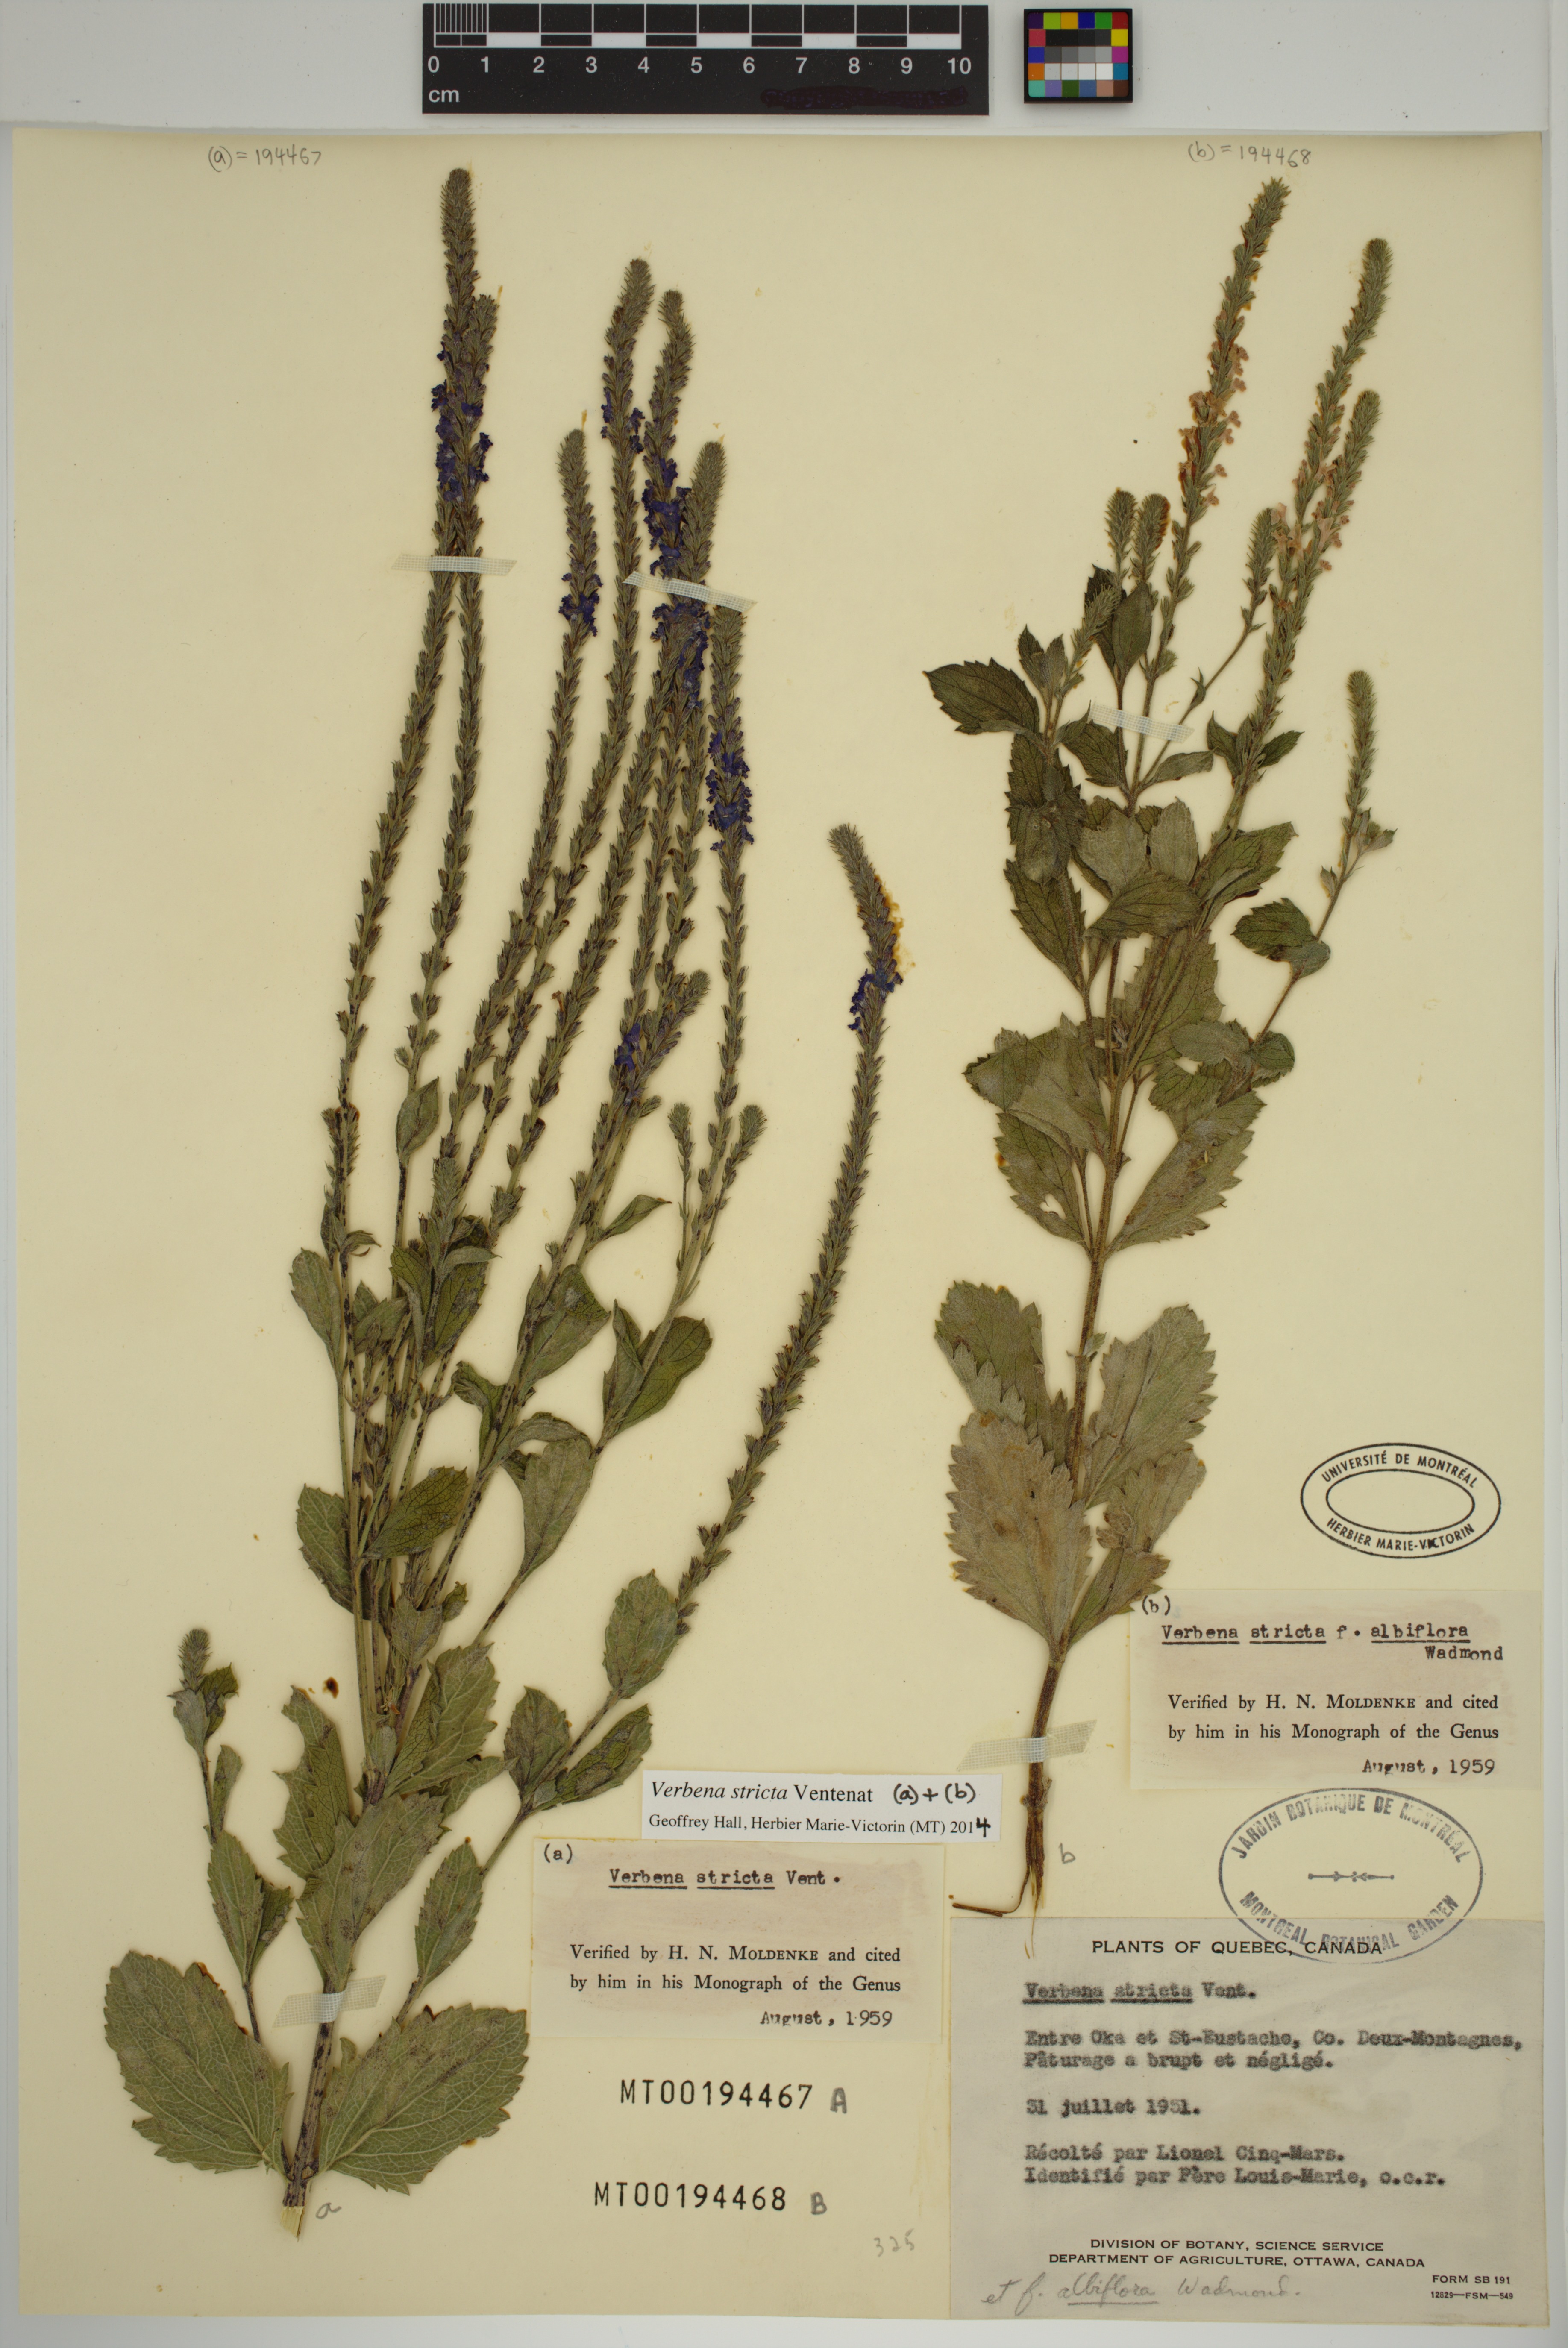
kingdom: Plantae
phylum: Tracheophyta
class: Magnoliopsida
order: Lamiales
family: Verbenaceae
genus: Verbena
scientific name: Verbena stricta
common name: Hoary vervain
